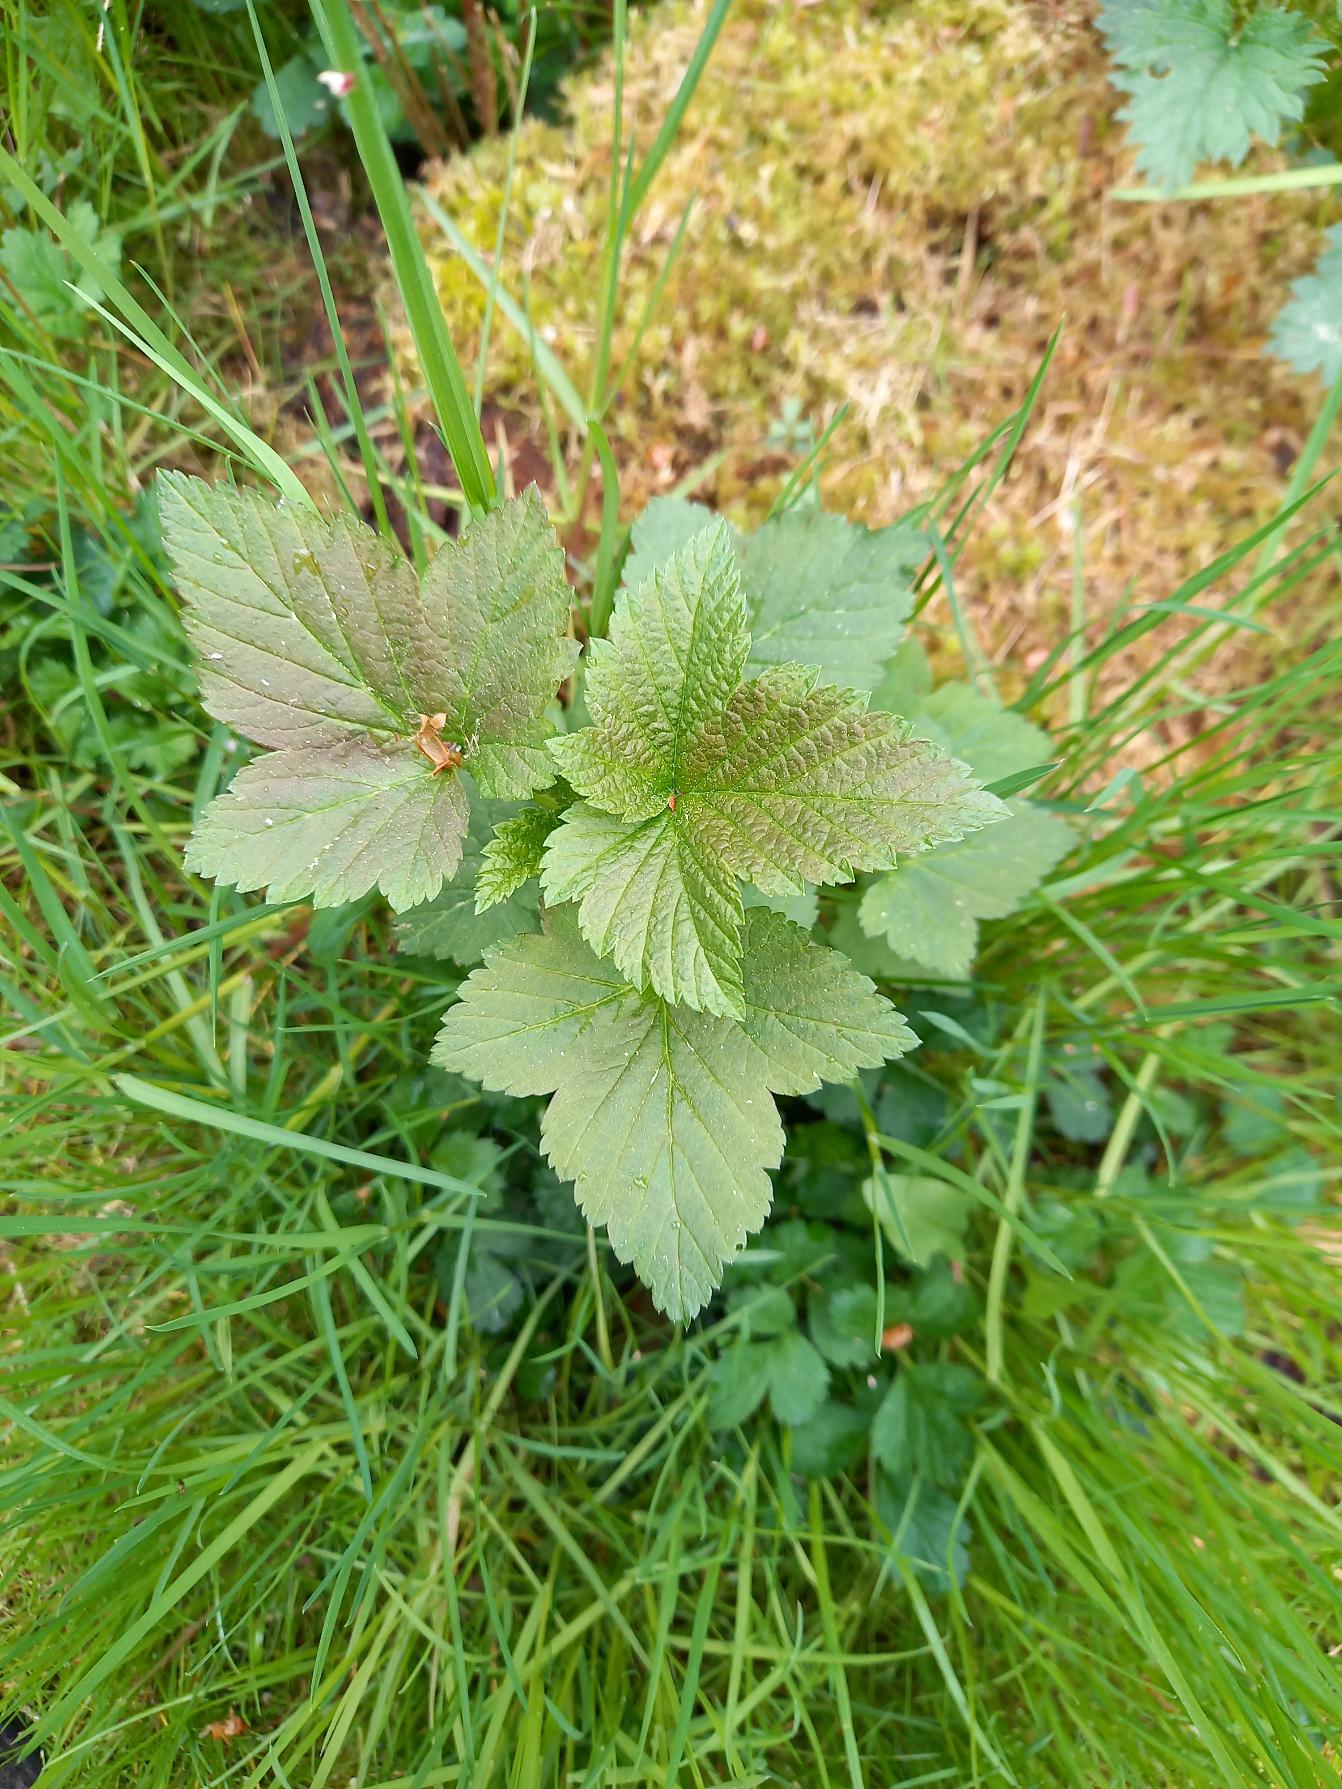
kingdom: Plantae
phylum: Tracheophyta
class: Magnoliopsida
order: Saxifragales
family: Grossulariaceae
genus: Ribes
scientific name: Ribes
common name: Ribsslægten
